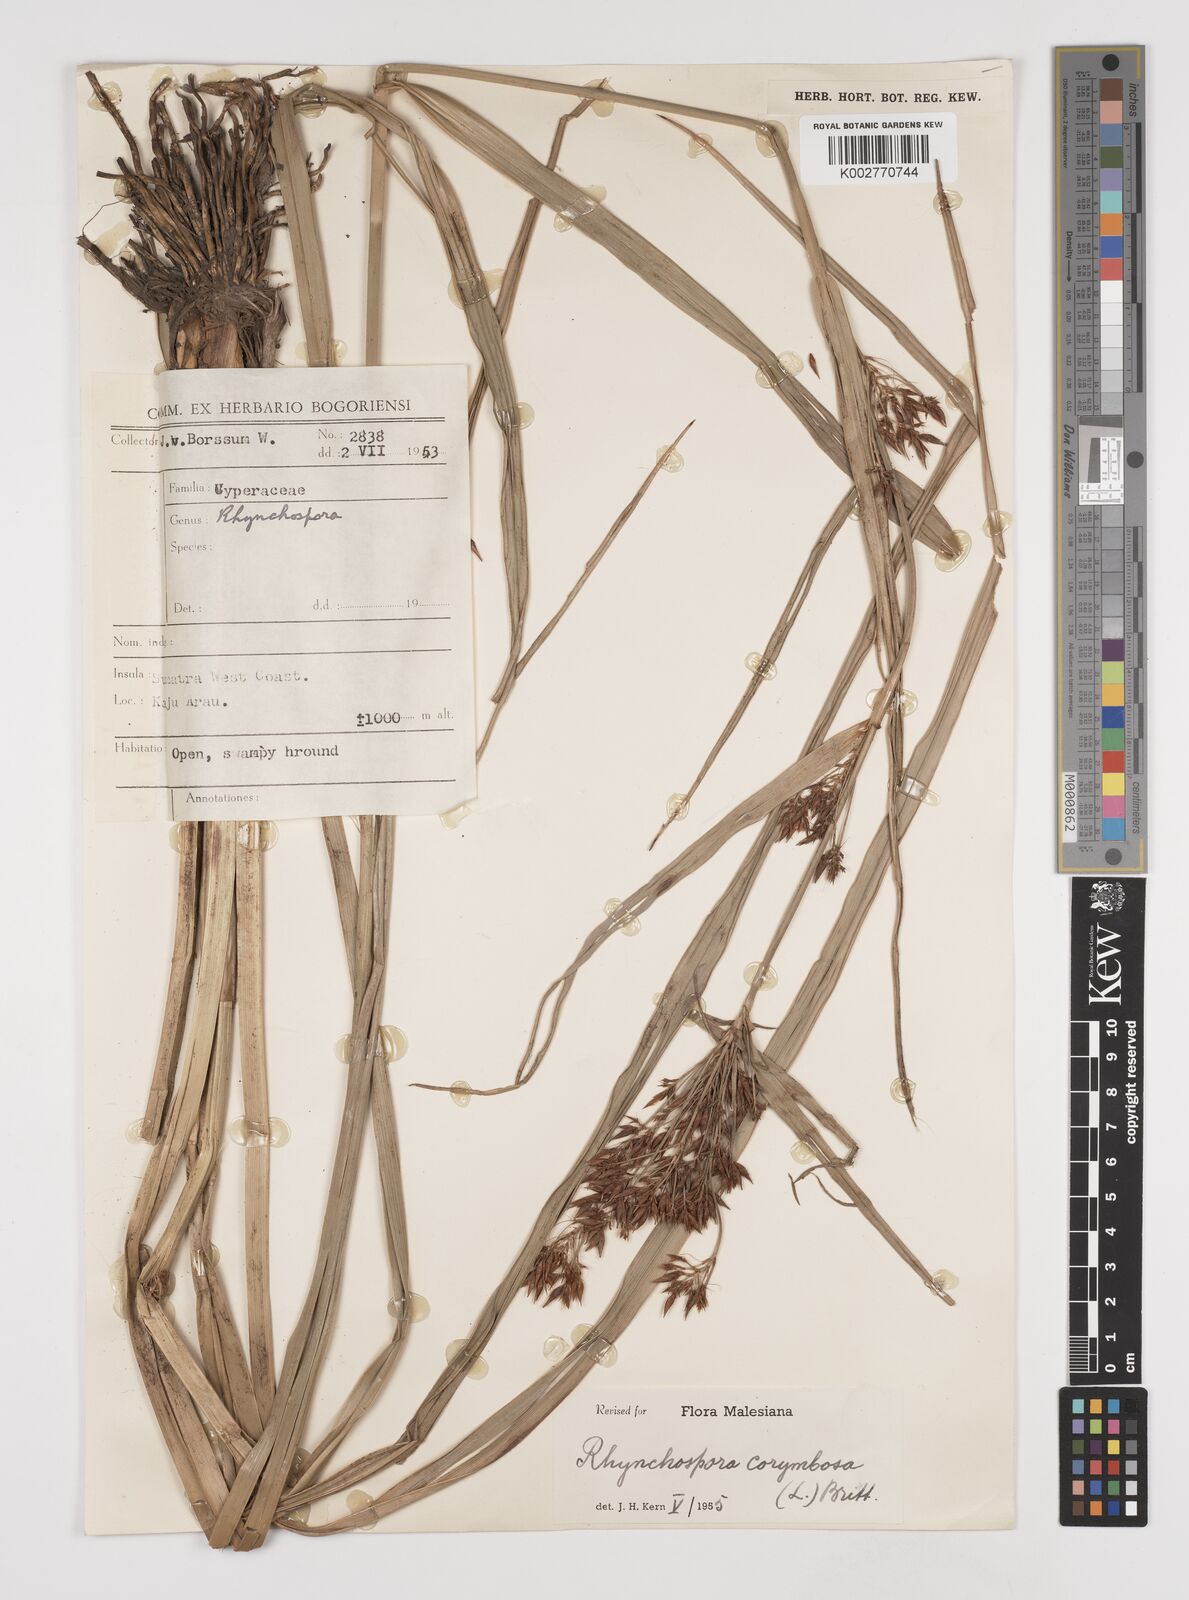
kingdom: Plantae
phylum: Tracheophyta
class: Liliopsida
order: Poales
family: Cyperaceae
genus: Rhynchospora
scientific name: Rhynchospora corymbosa
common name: Golden beak sedge
